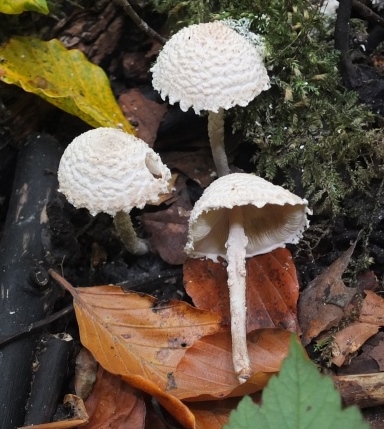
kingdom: Fungi
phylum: Basidiomycota
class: Agaricomycetes
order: Agaricales
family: Agaricaceae
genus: Cystolepiota
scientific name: Cystolepiota adulterina
